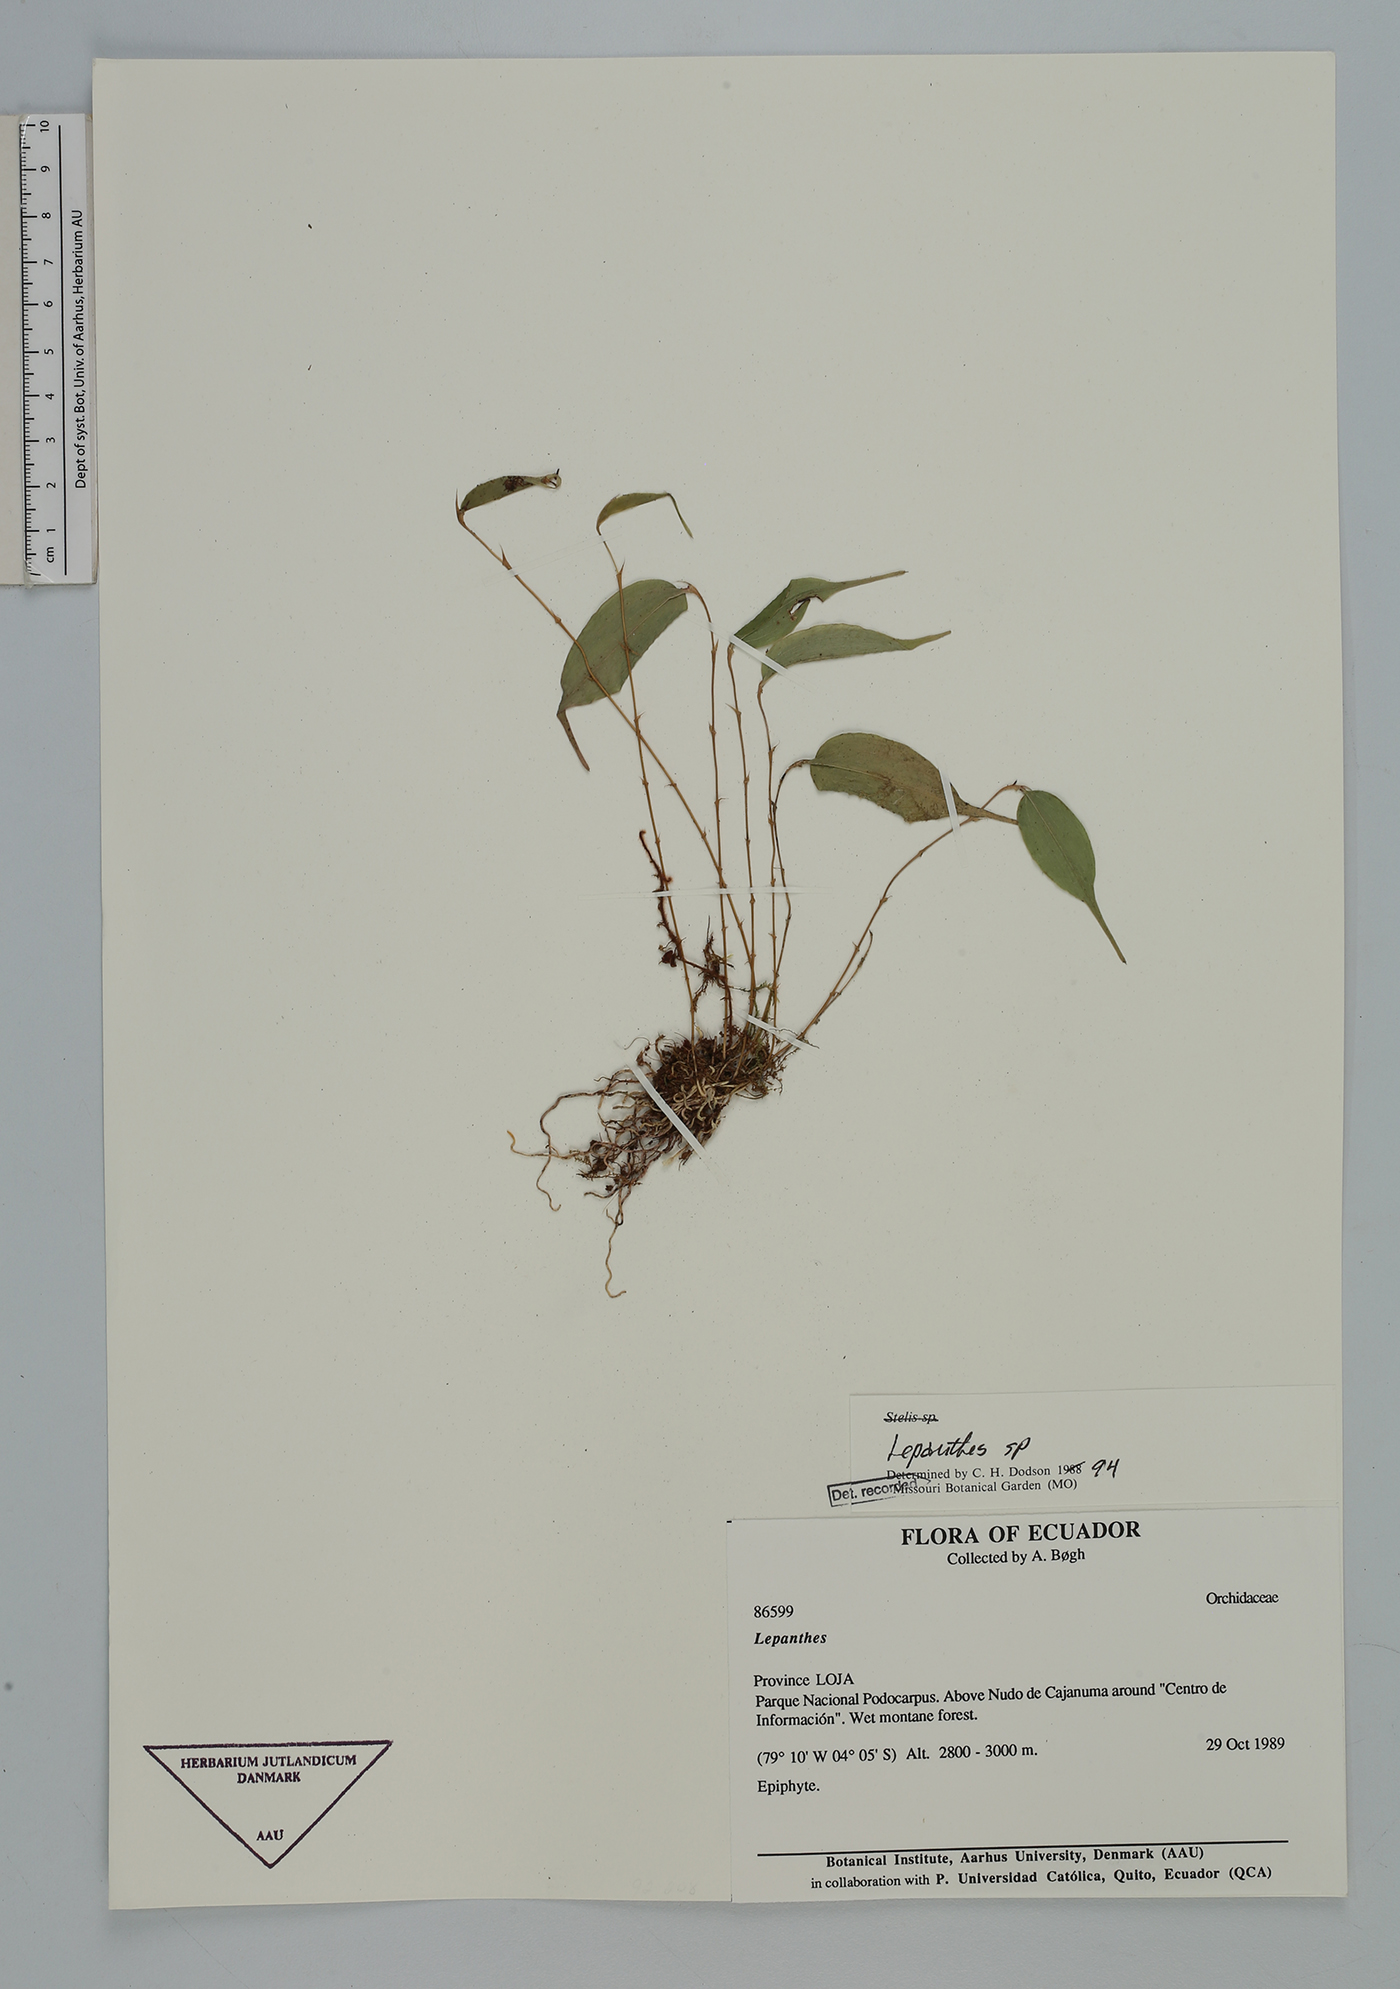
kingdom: Plantae
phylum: Tracheophyta
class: Liliopsida
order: Asparagales
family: Orchidaceae
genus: Lepanthes
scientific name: Lepanthes
